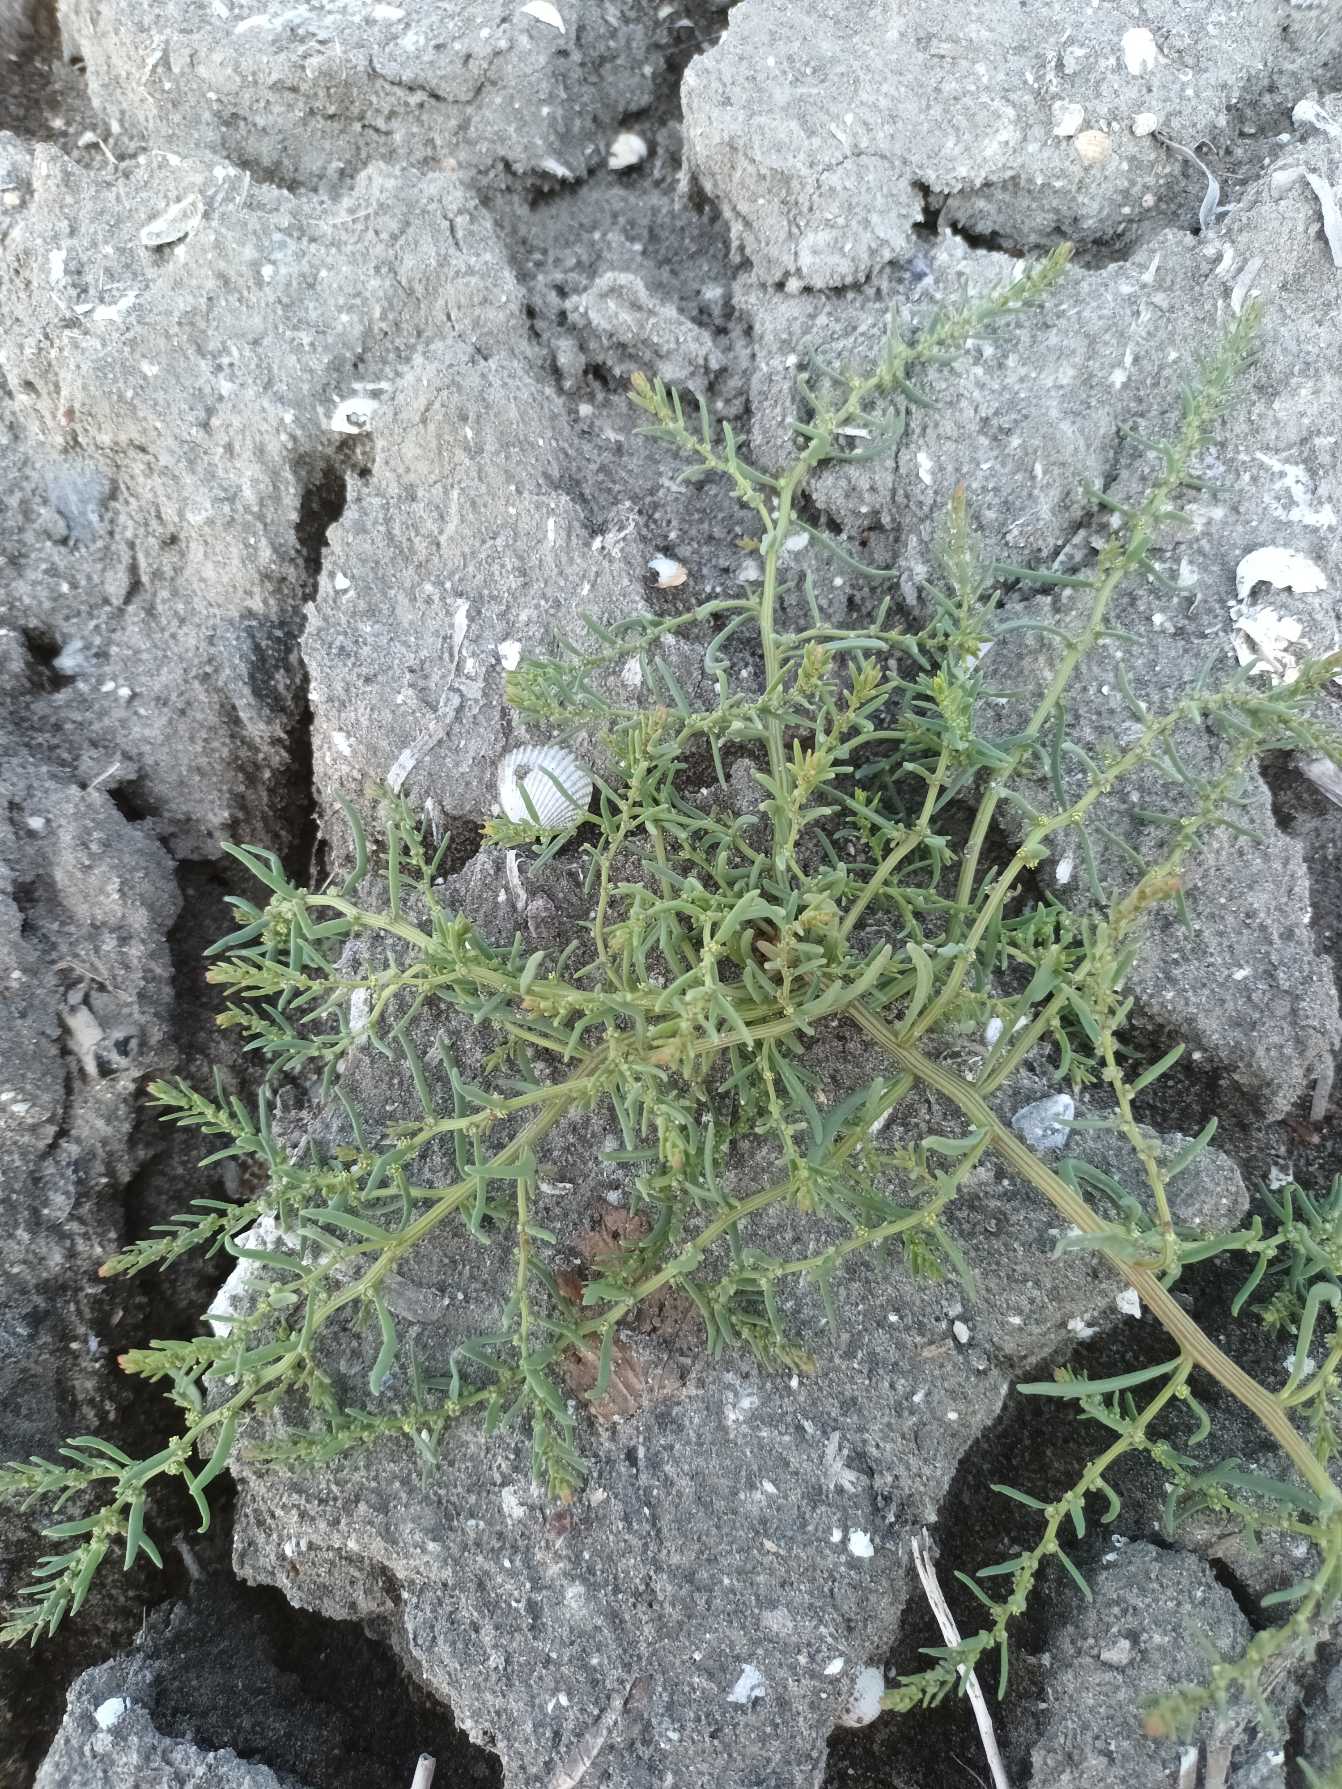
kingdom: Plantae
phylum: Tracheophyta
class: Magnoliopsida
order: Caryophyllales
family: Amaranthaceae
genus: Suaeda
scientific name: Suaeda maritima
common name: Strandgåsefod
